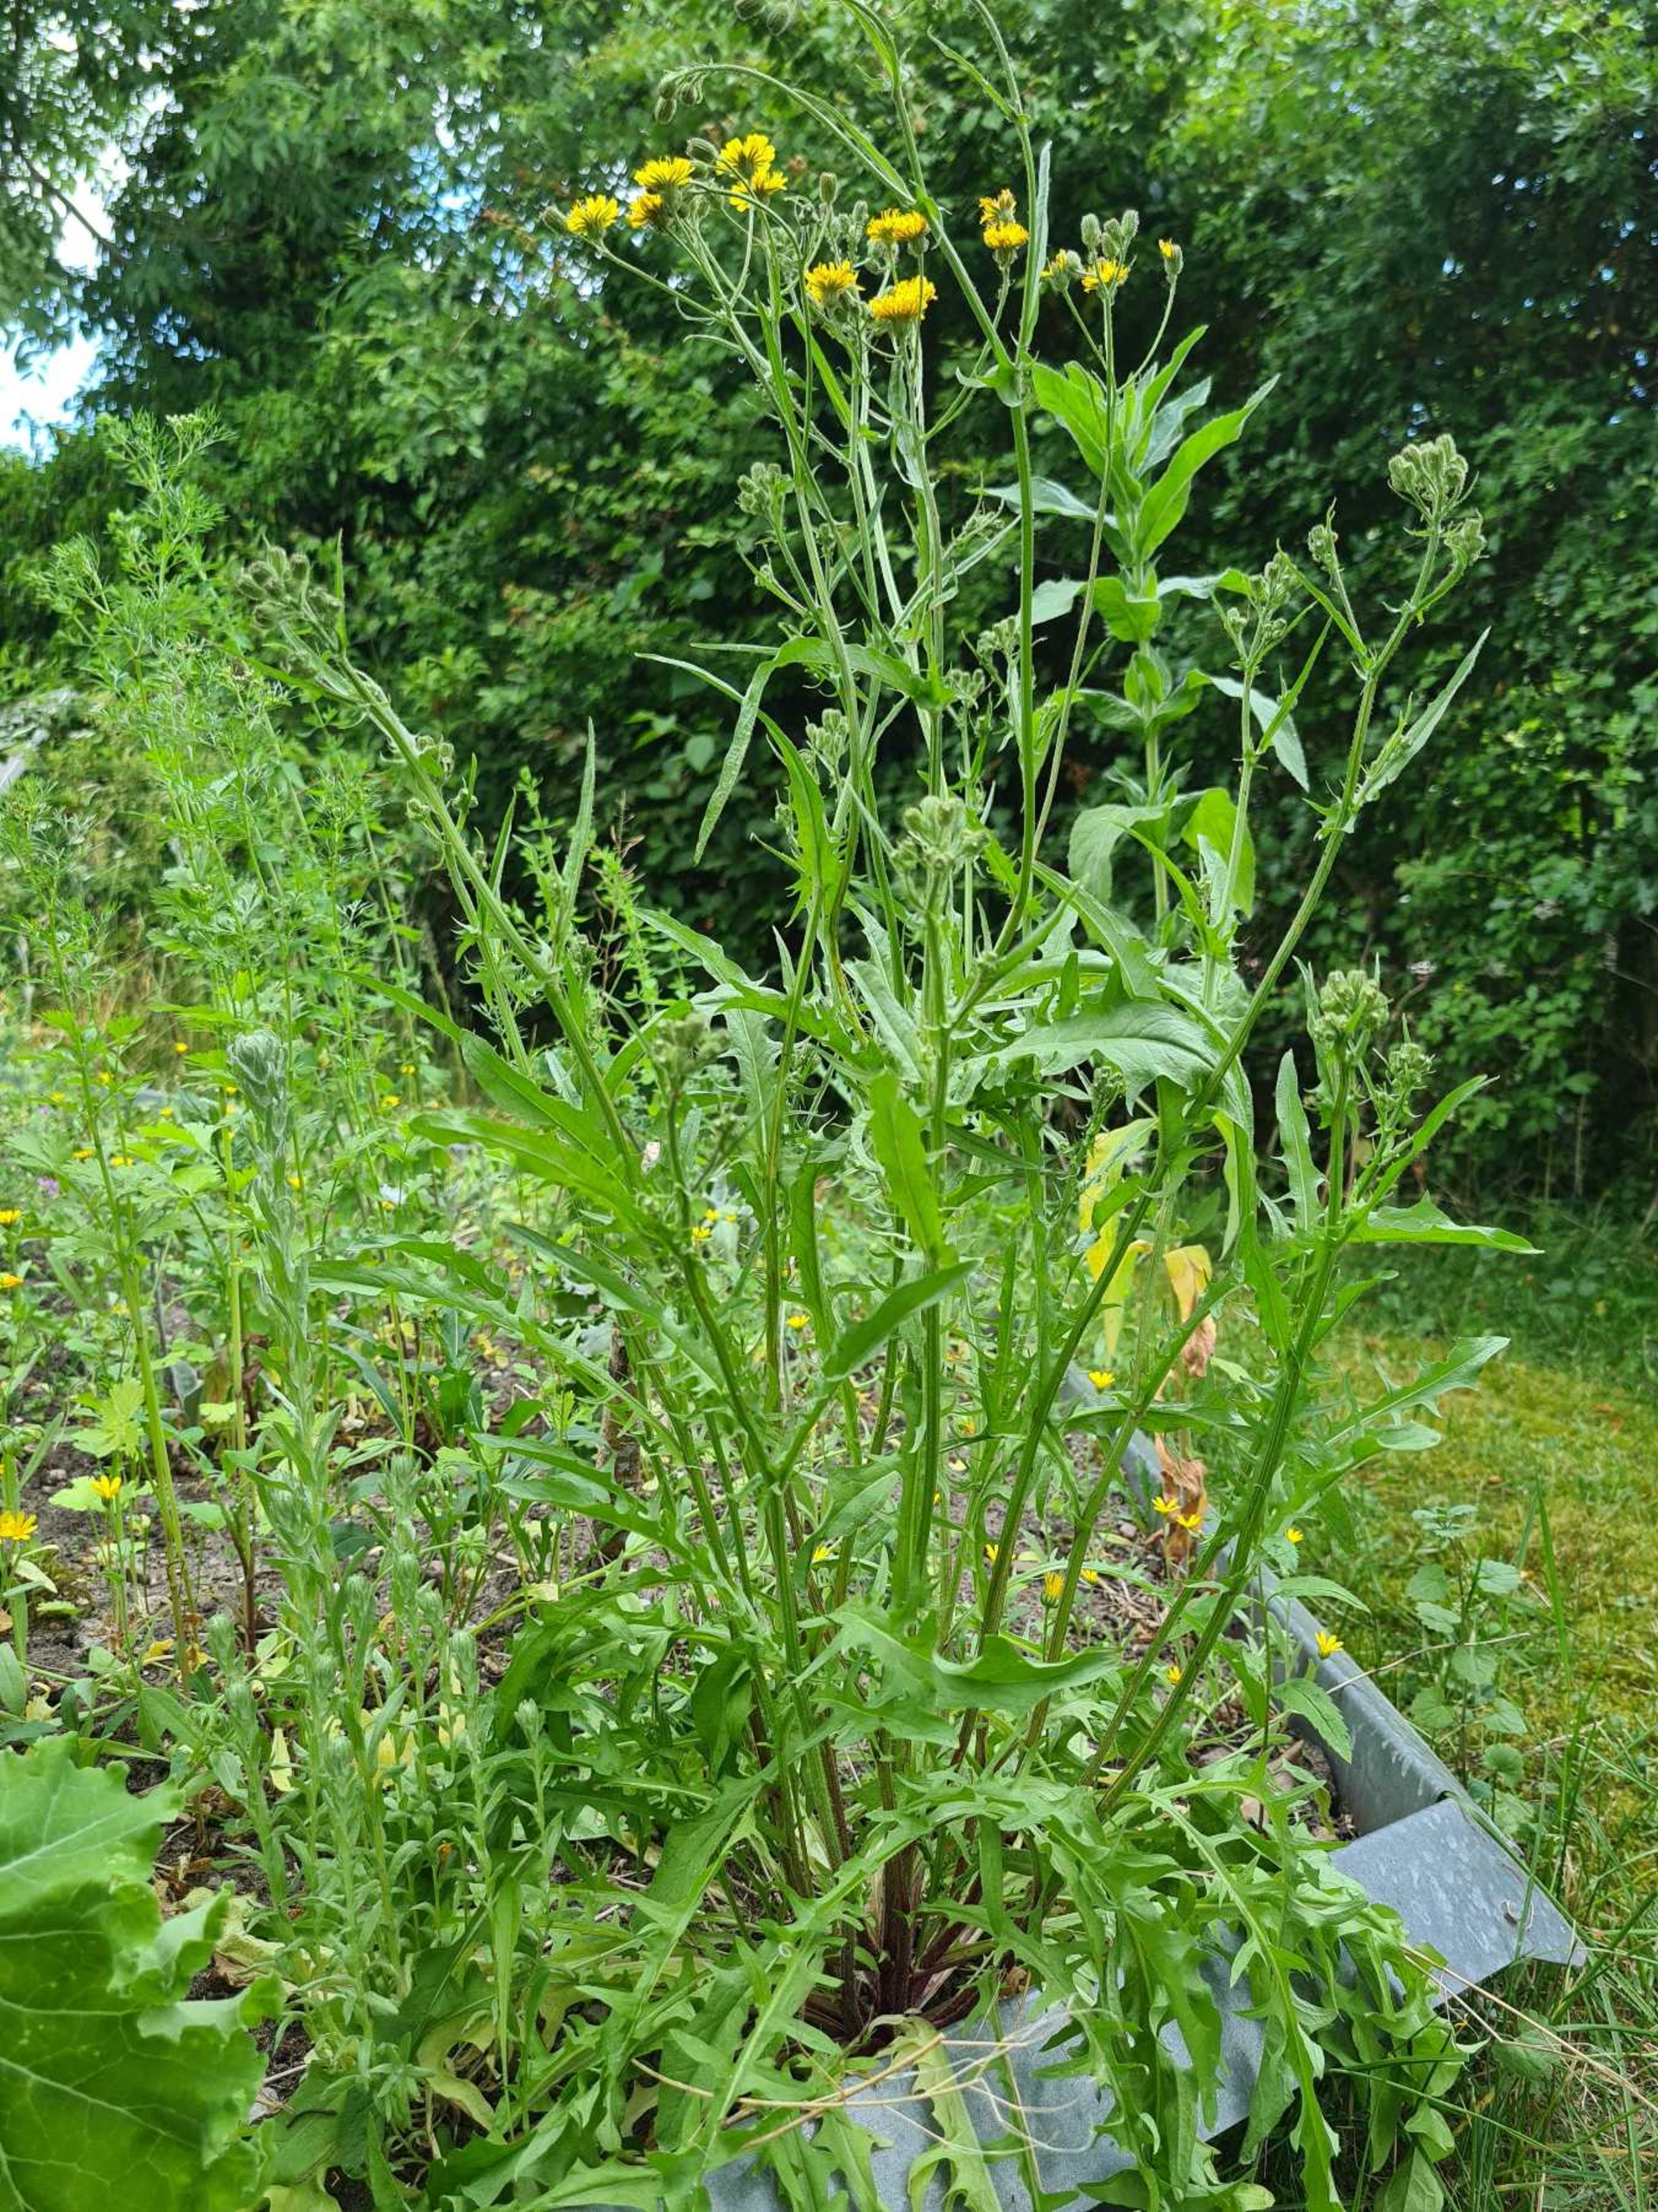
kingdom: Plantae
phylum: Tracheophyta
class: Magnoliopsida
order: Asterales
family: Asteraceae
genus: Crepis
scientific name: Crepis capillaris
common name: Grøn høgeskæg
